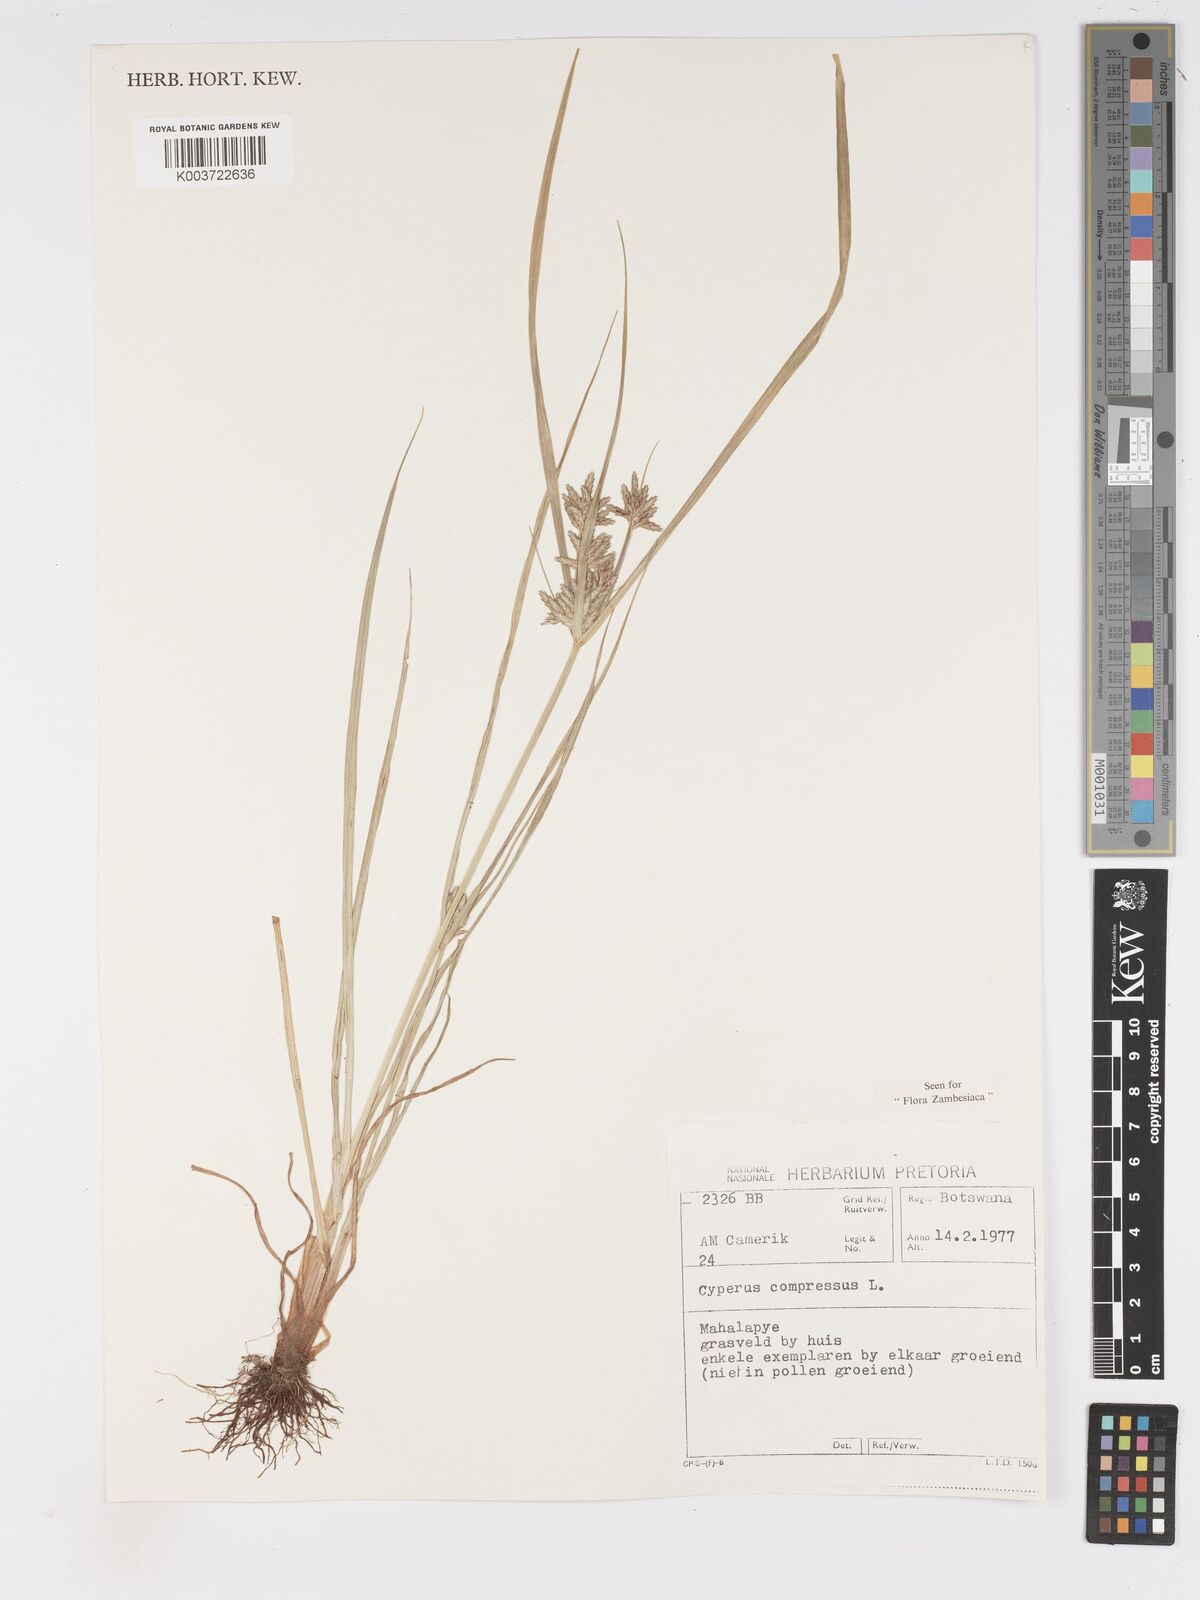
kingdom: Plantae
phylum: Tracheophyta
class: Liliopsida
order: Poales
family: Cyperaceae
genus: Cyperus
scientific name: Cyperus compressus
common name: Poorland flatsedge
